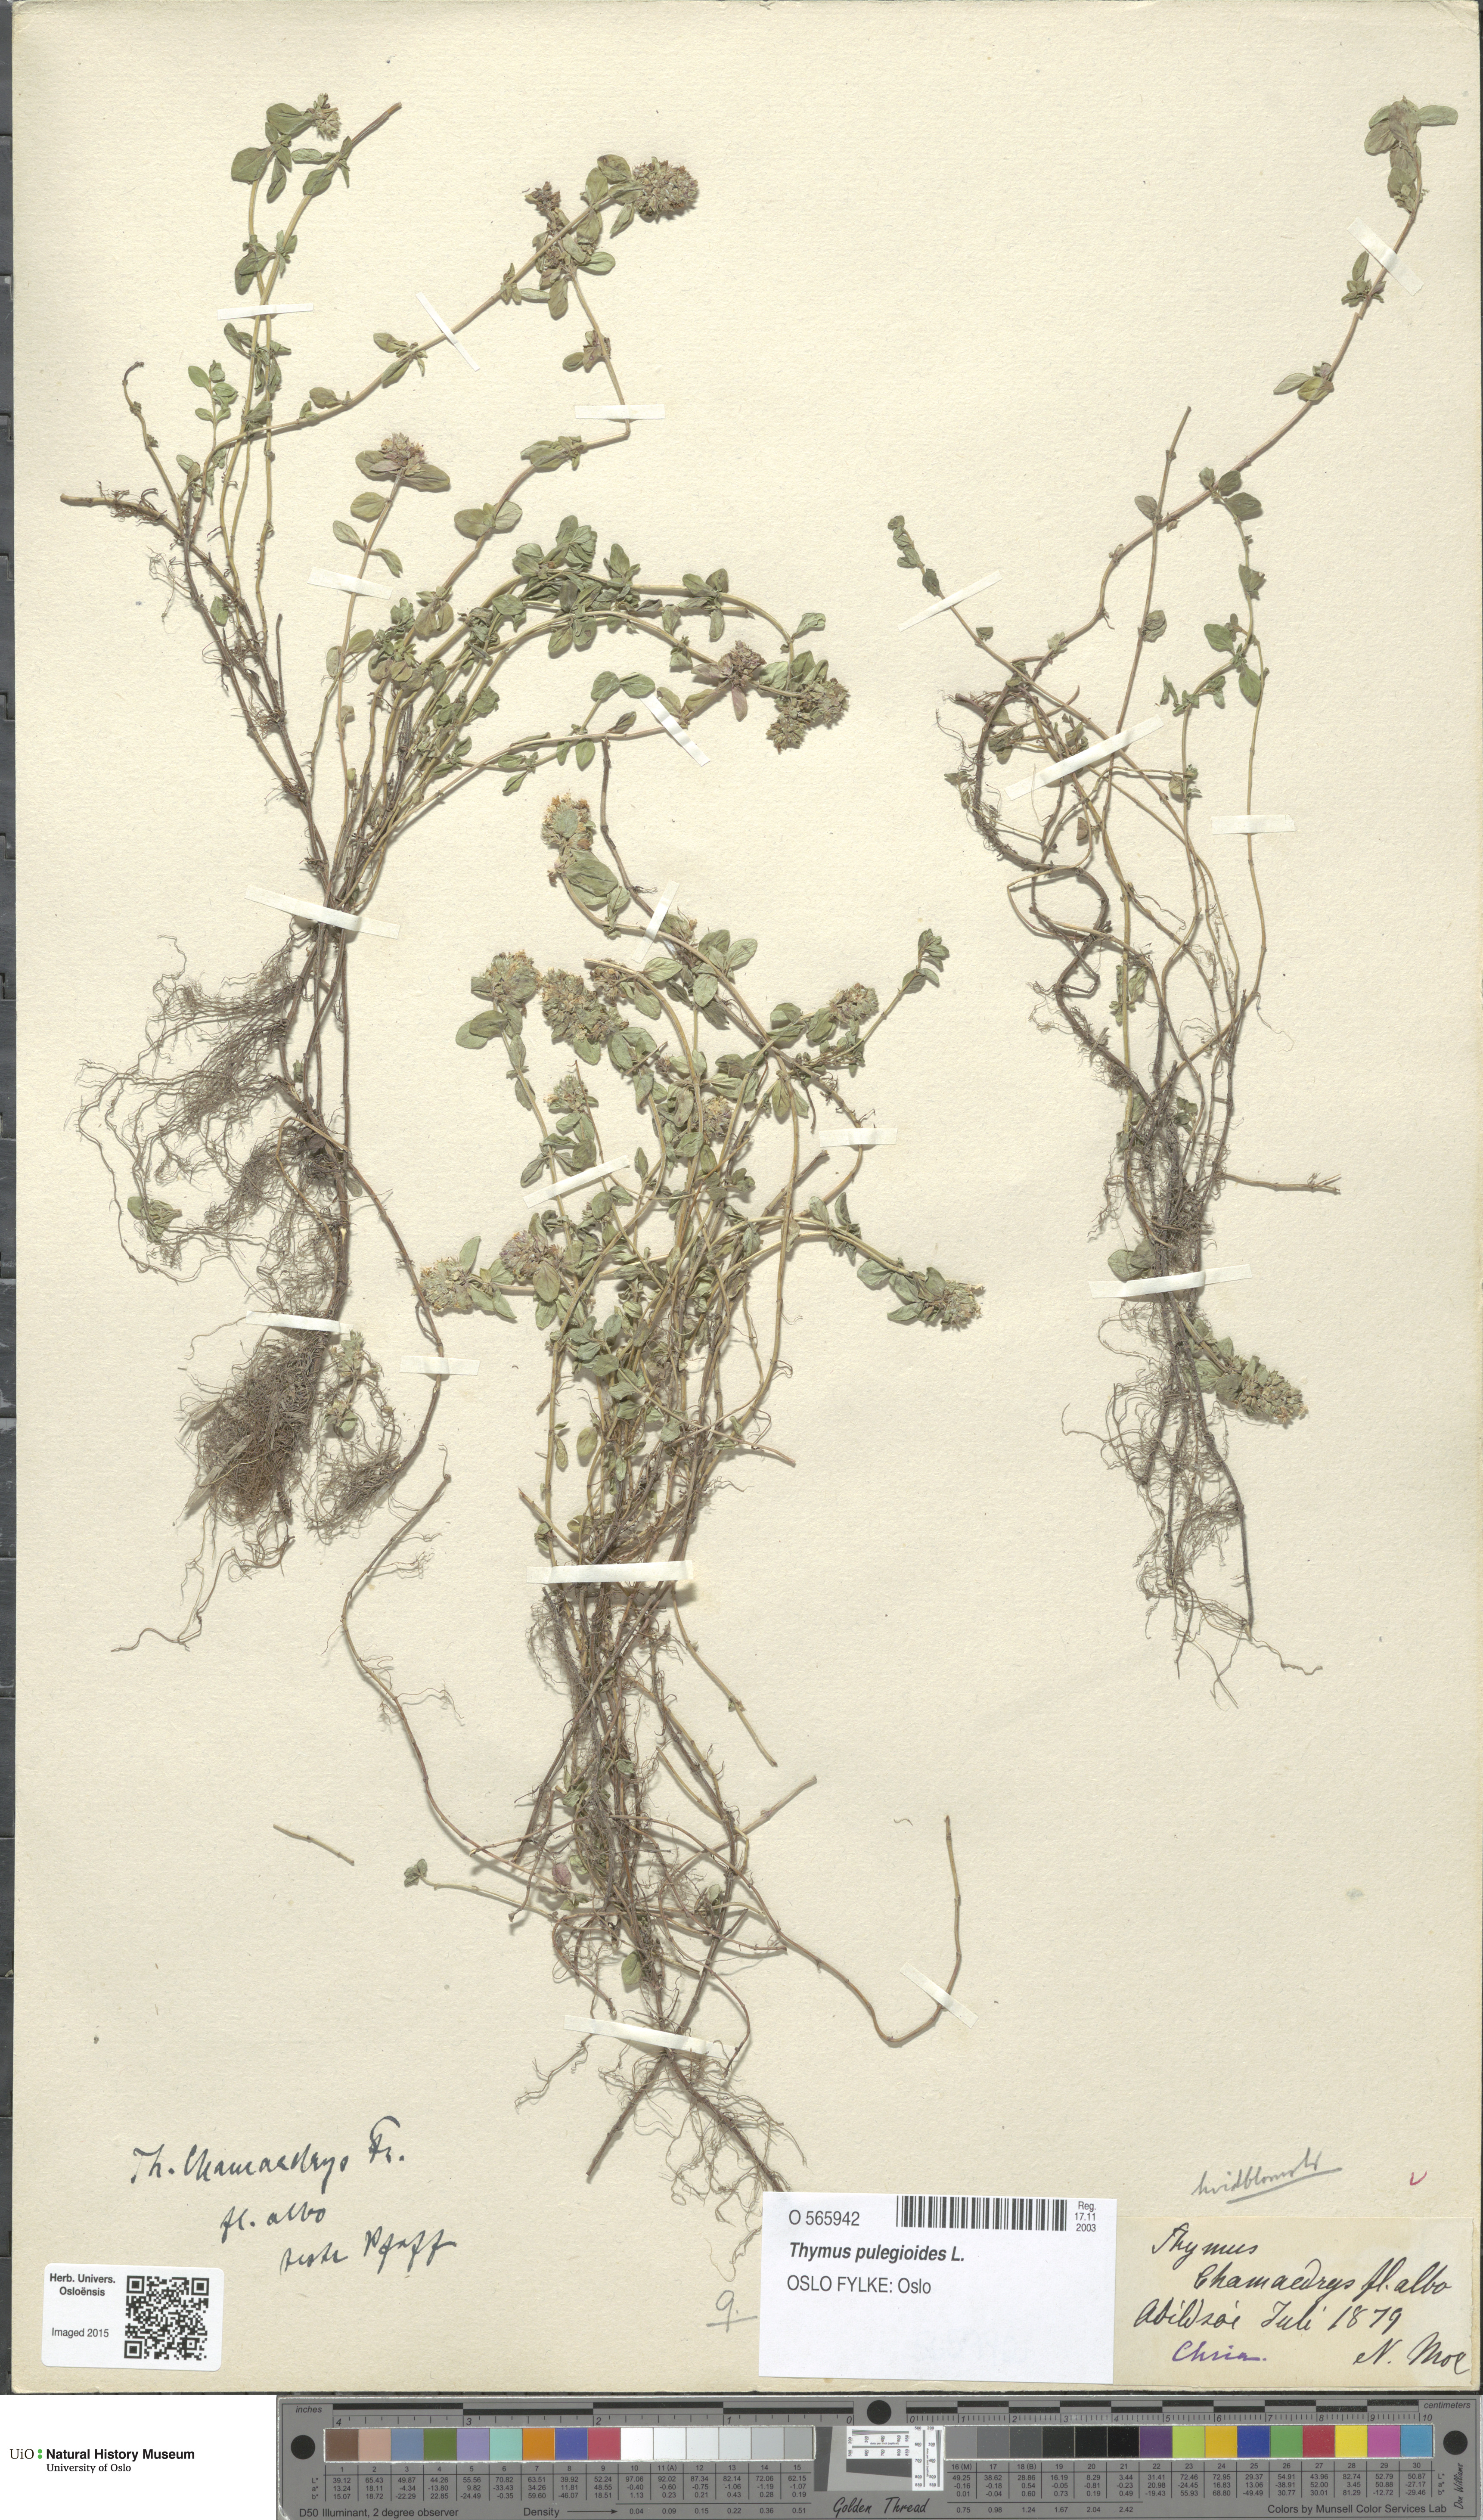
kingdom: Plantae
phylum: Tracheophyta
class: Magnoliopsida
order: Lamiales
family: Lamiaceae
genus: Thymus
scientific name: Thymus pulegioides
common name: Large thyme
